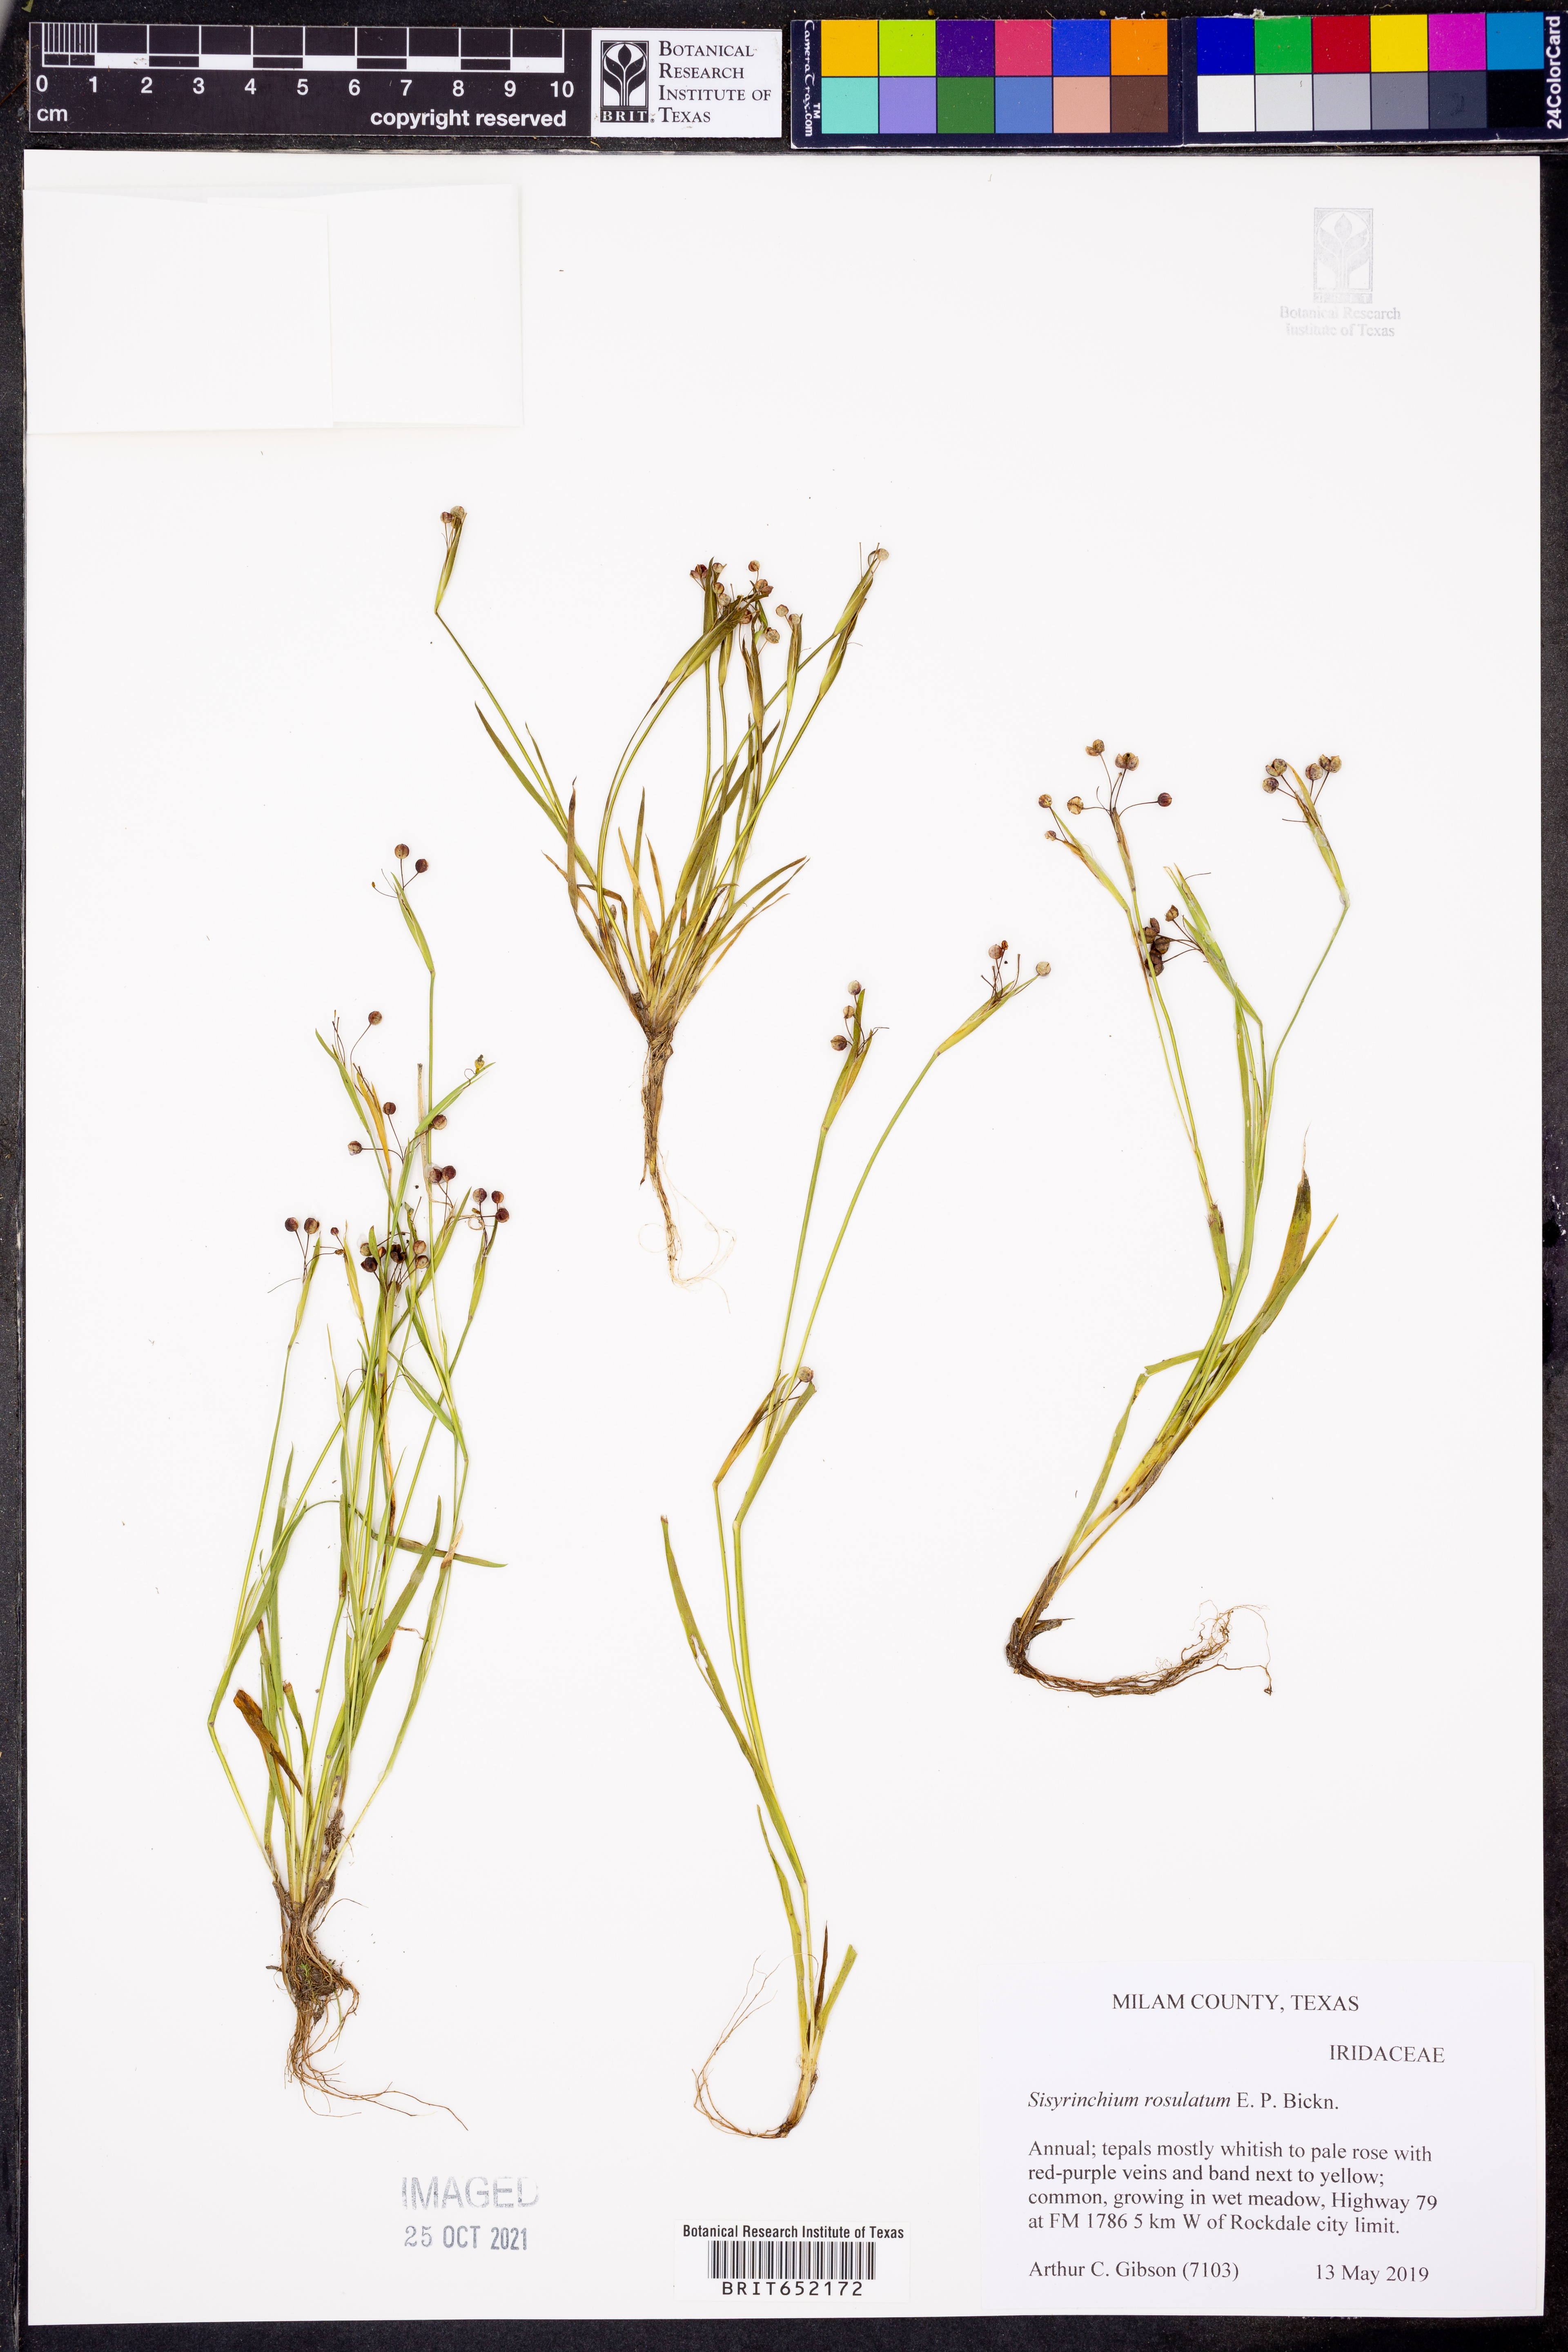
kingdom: Plantae
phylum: Tracheophyta
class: Liliopsida
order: Asparagales
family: Iridaceae
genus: Sisyrinchium
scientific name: Sisyrinchium rosulatum
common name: Annual blue-eyed grass
